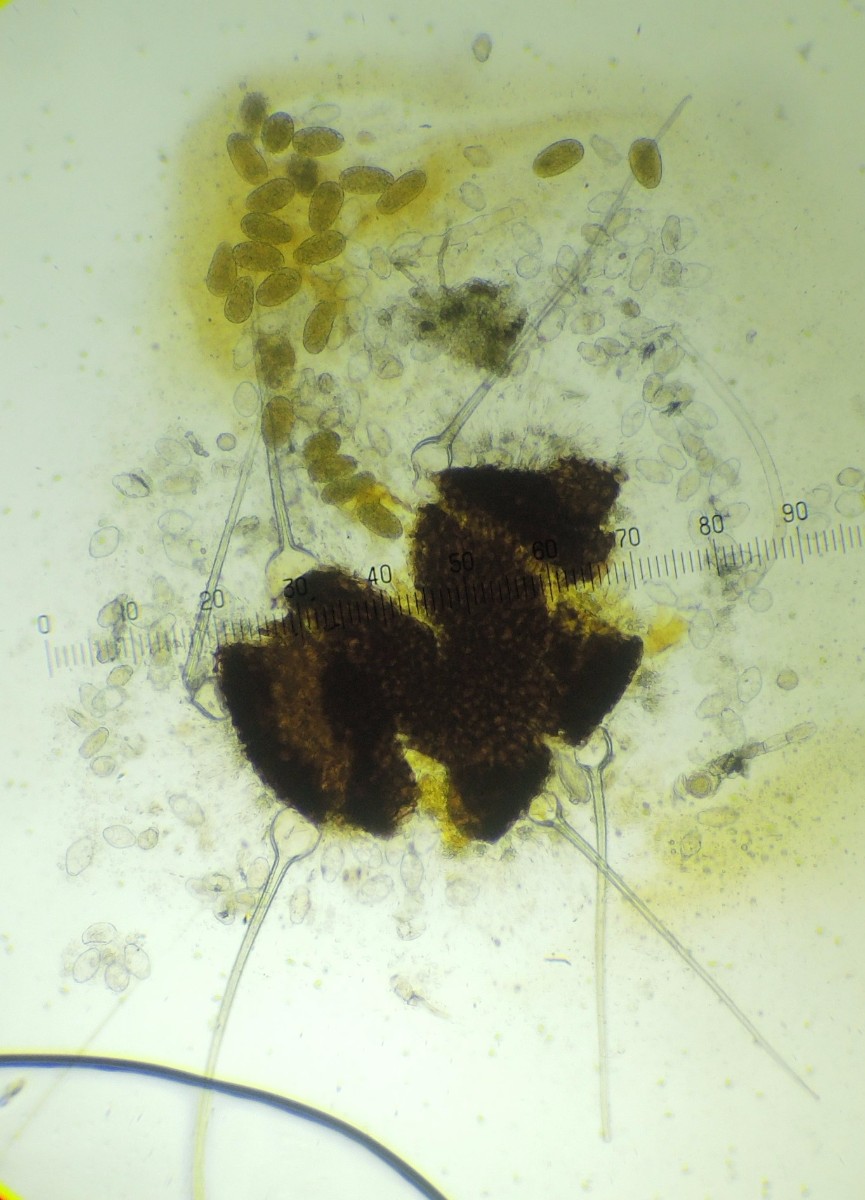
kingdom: Fungi
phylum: Ascomycota
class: Leotiomycetes
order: Helotiales
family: Erysiphaceae
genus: Golovinomyces
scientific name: Golovinomyces verbasci
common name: kongelys-meldug
